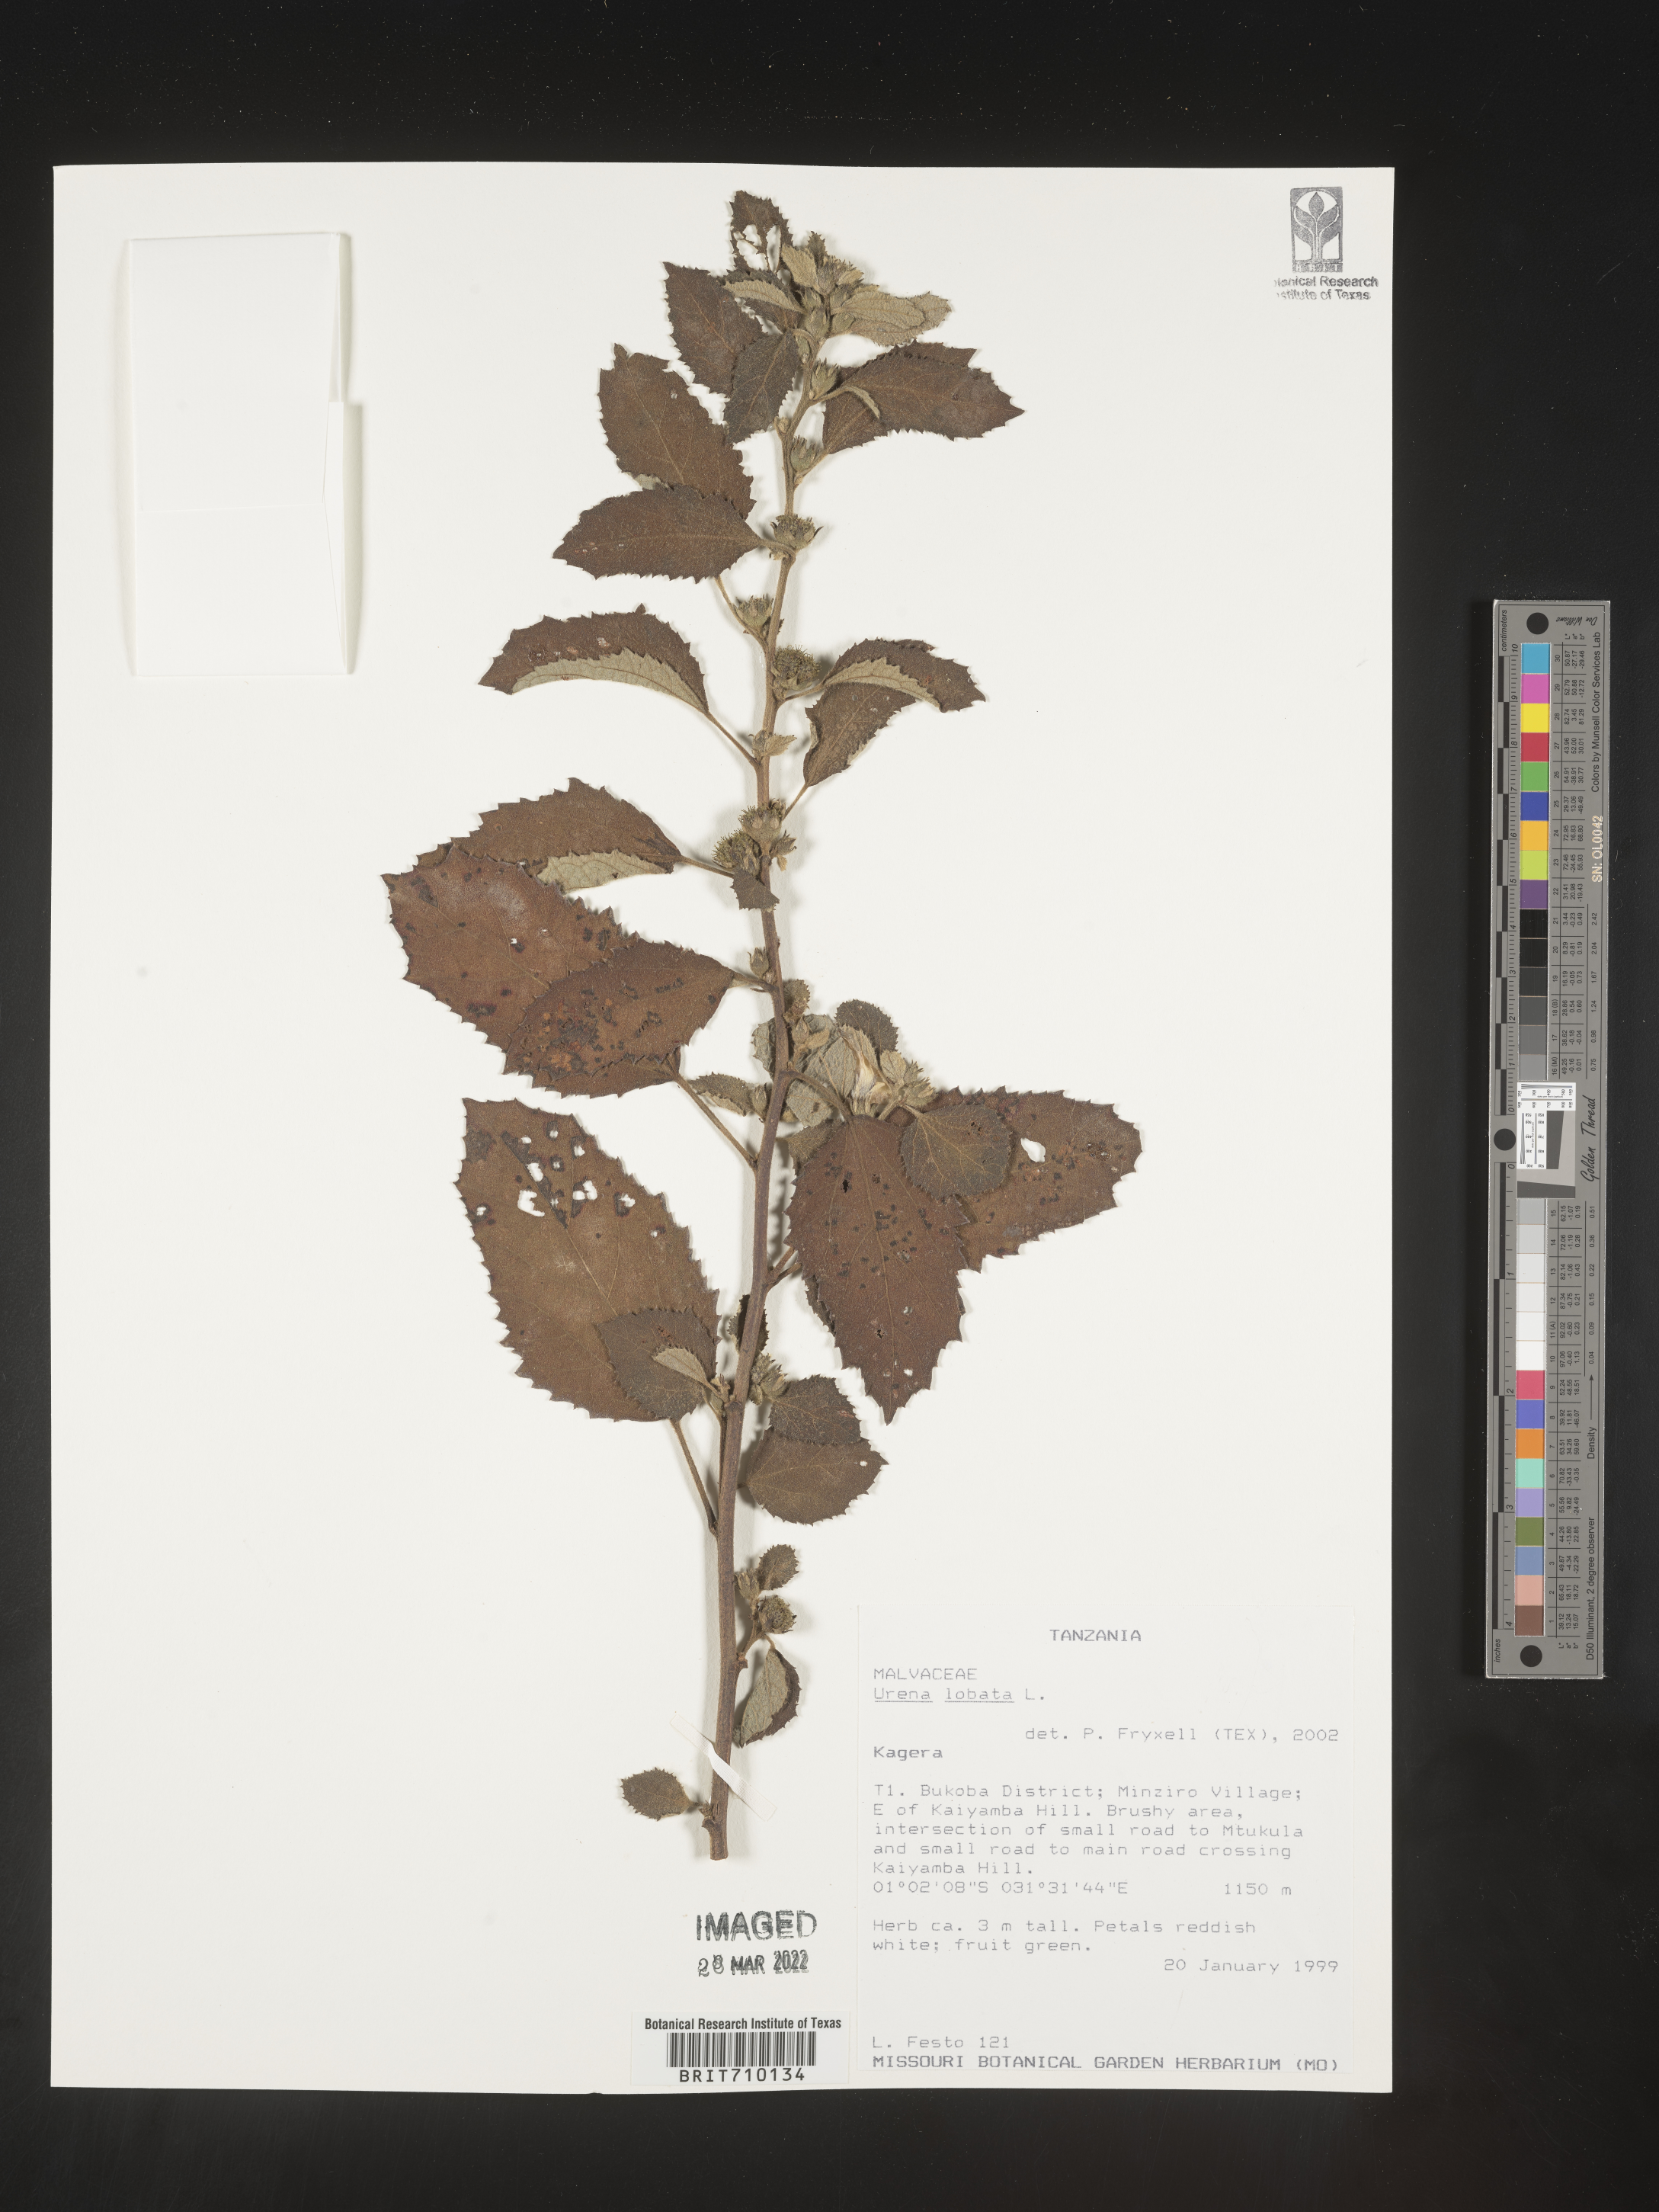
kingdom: Plantae
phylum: Tracheophyta
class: Magnoliopsida
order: Malvales
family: Malvaceae
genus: Urena
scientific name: Urena
